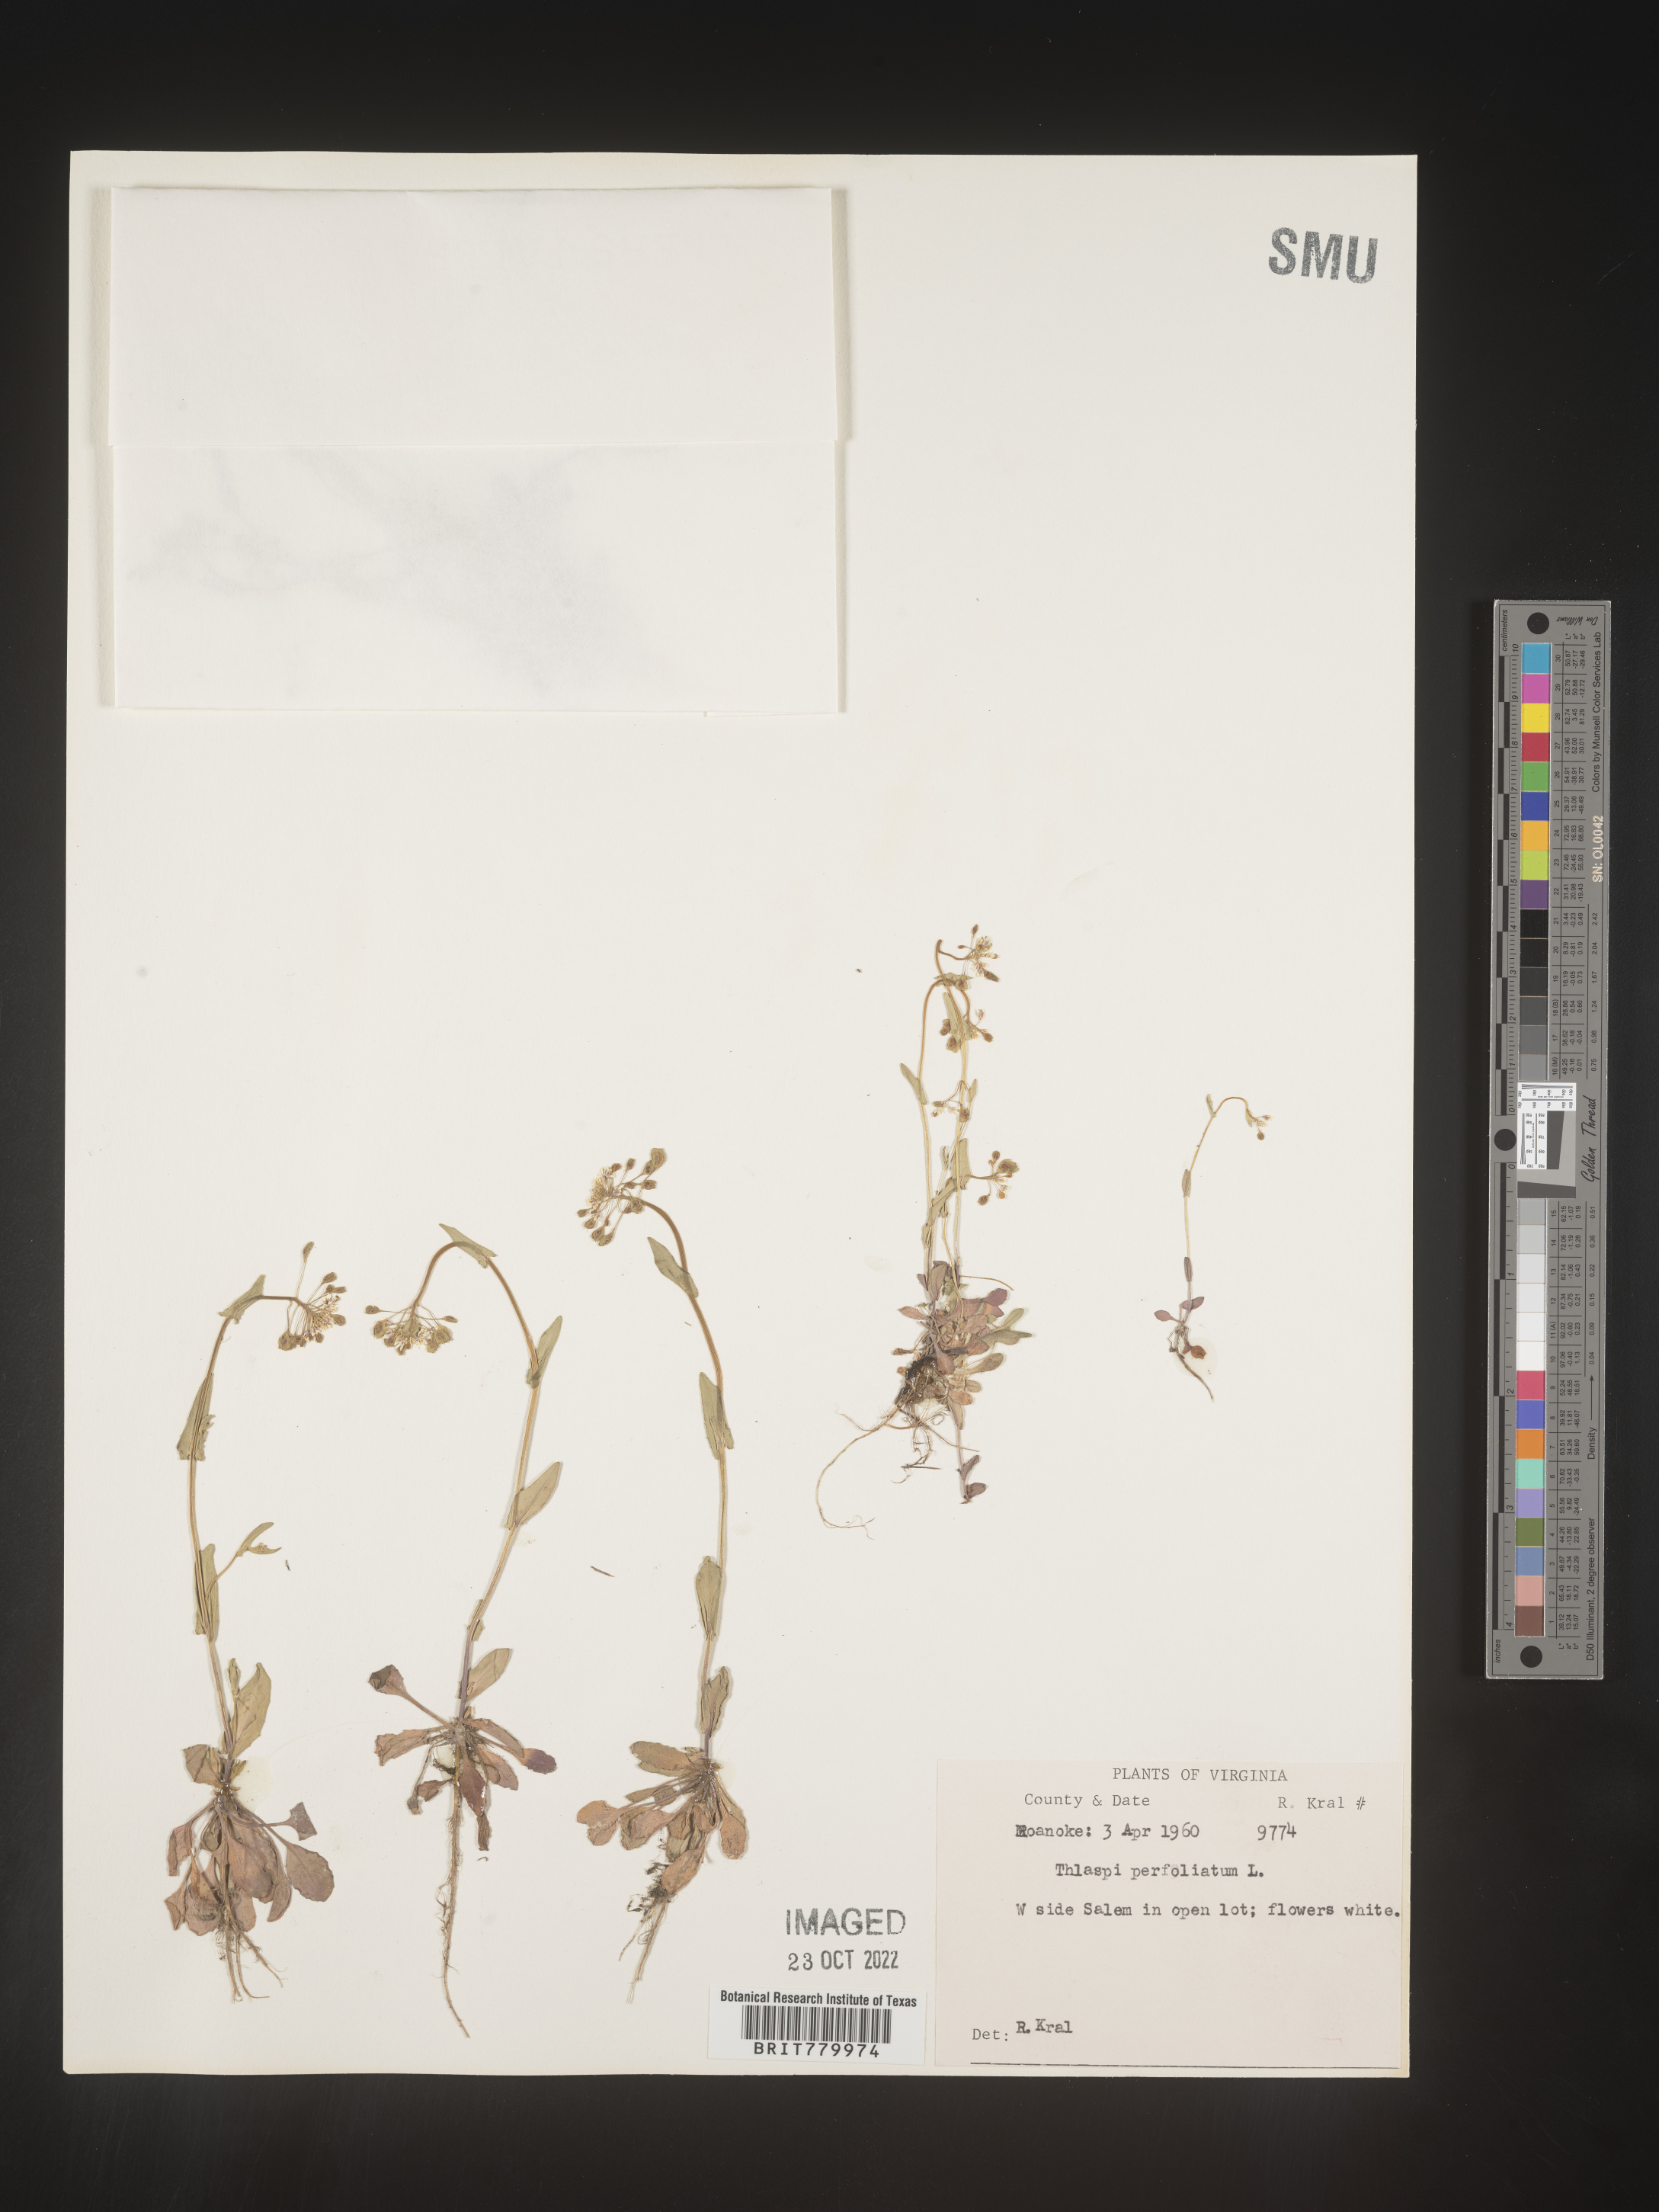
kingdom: Plantae
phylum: Tracheophyta
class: Magnoliopsida
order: Brassicales
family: Brassicaceae
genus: Thlaspi
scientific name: Thlaspi
